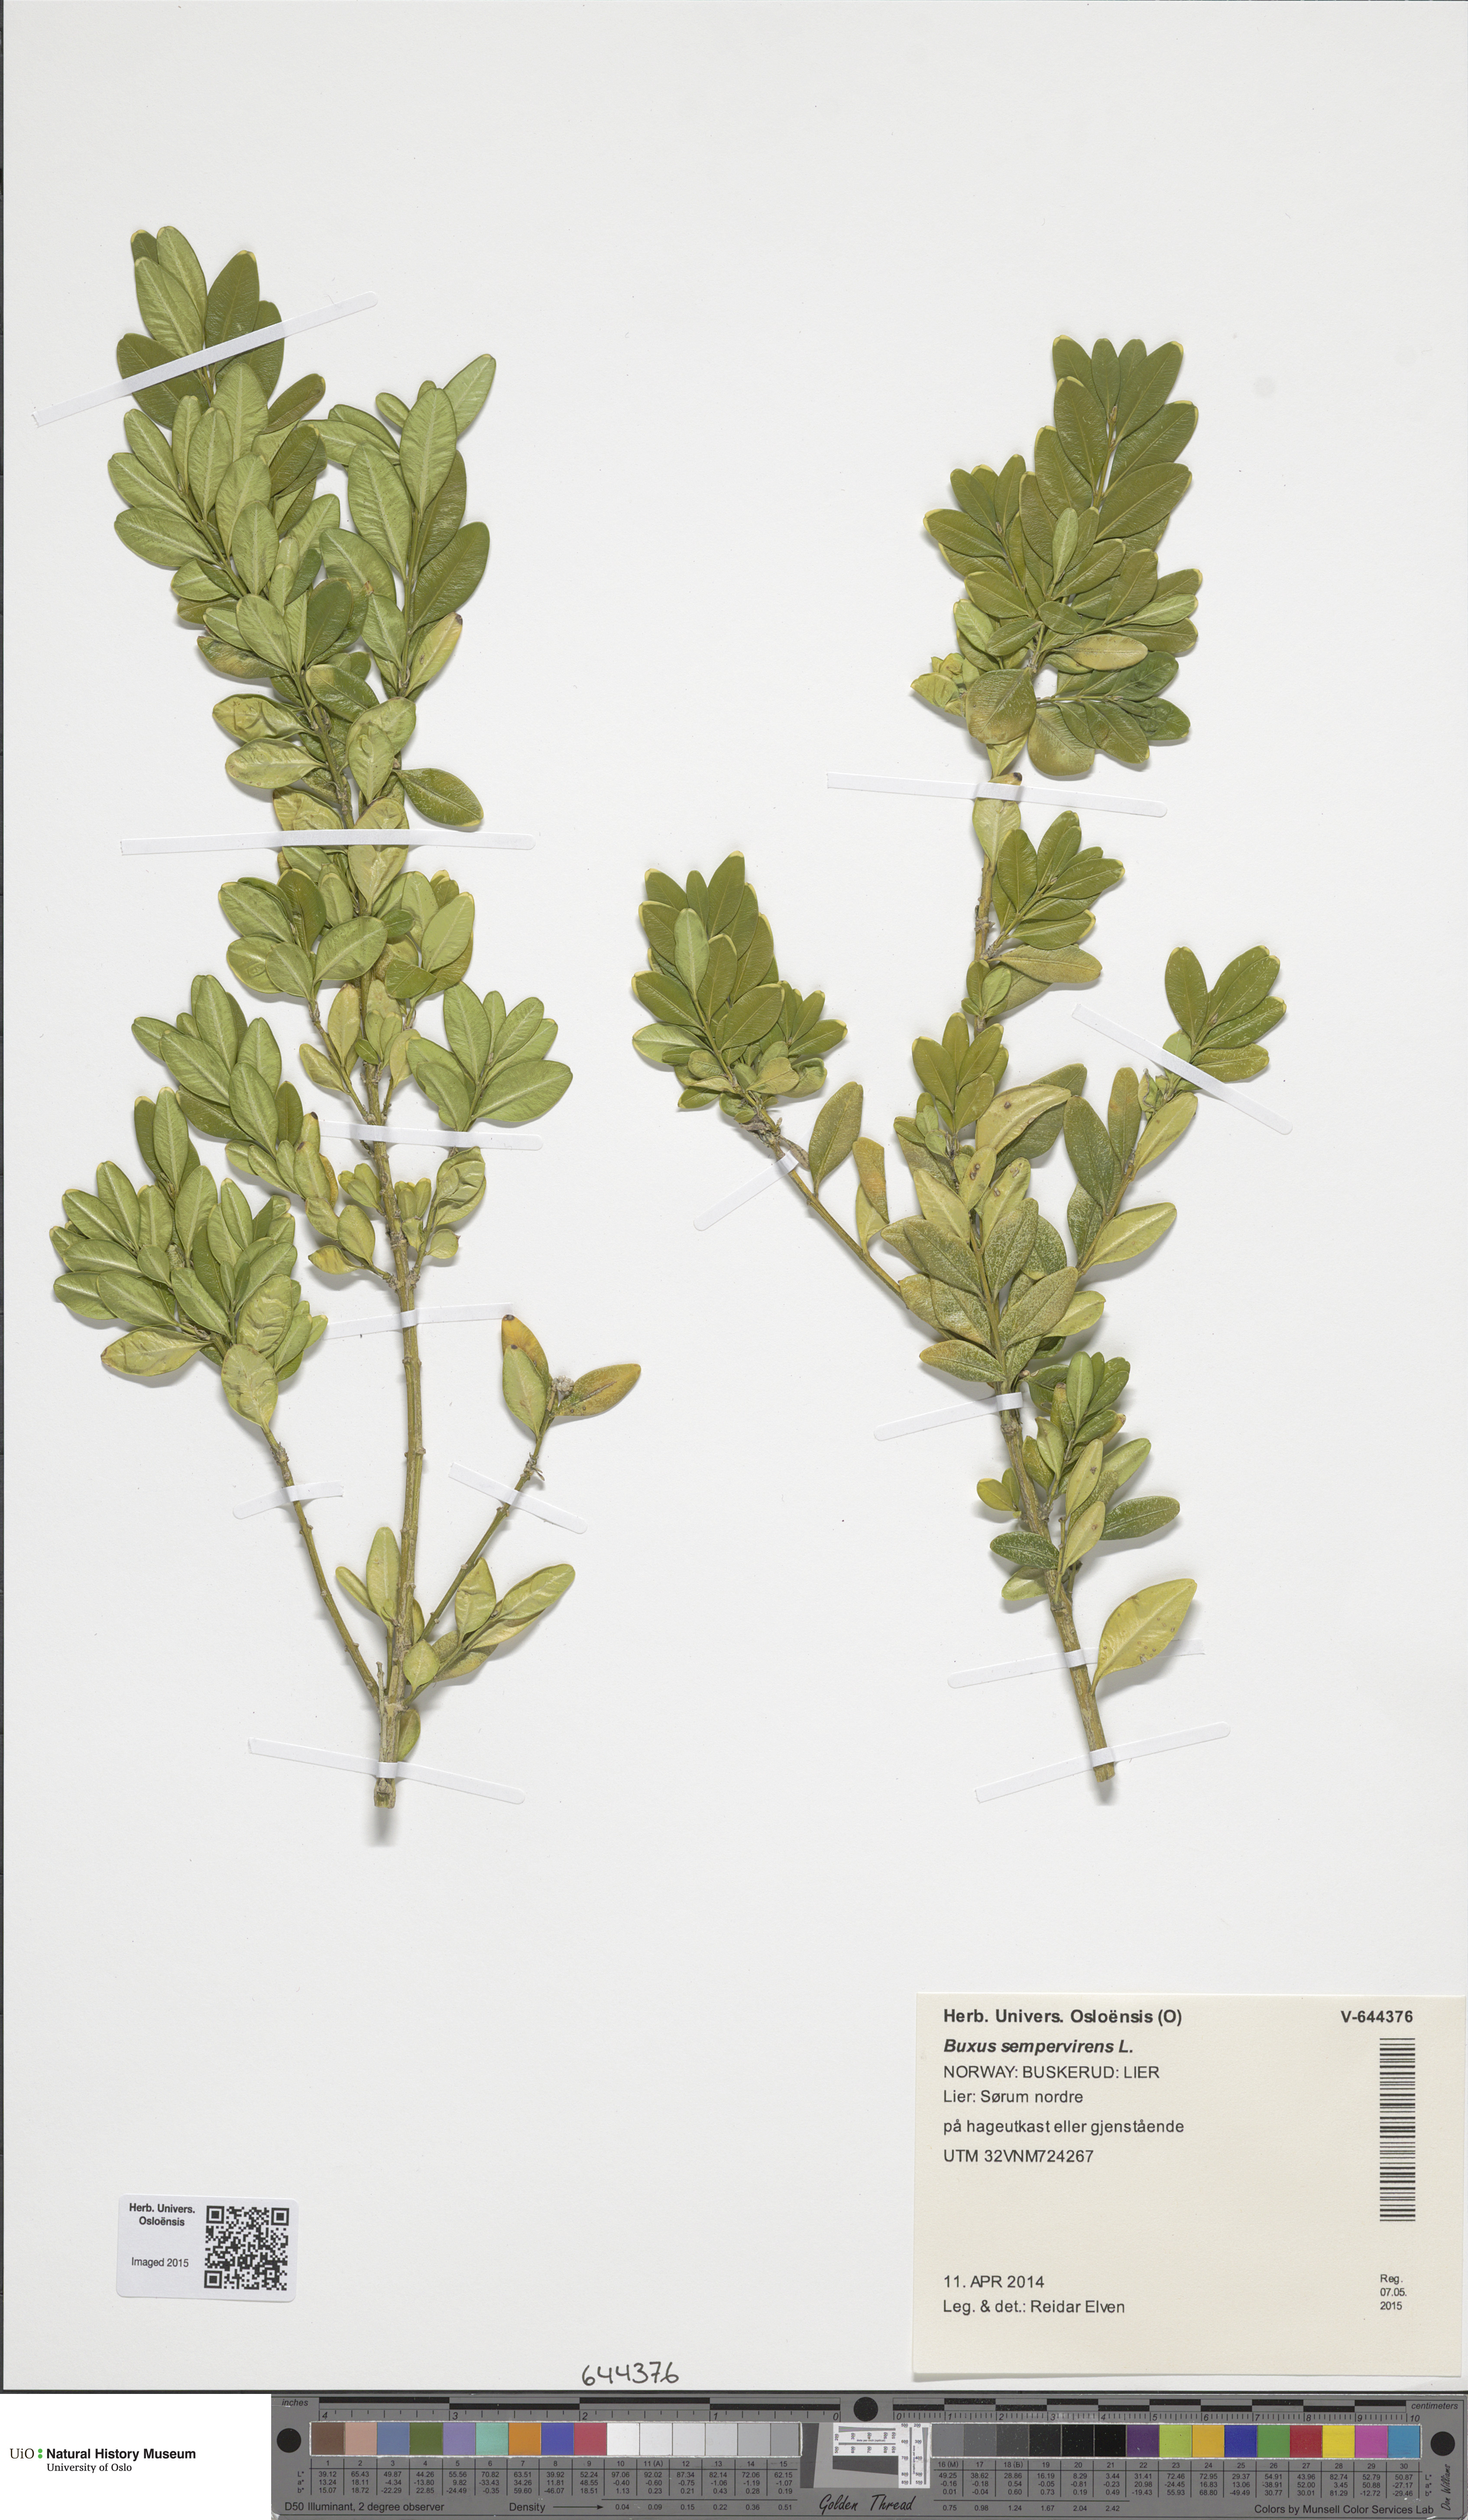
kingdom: Plantae
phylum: Tracheophyta
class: Magnoliopsida
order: Buxales
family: Buxaceae
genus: Buxus
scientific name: Buxus sempervirens
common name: Box
